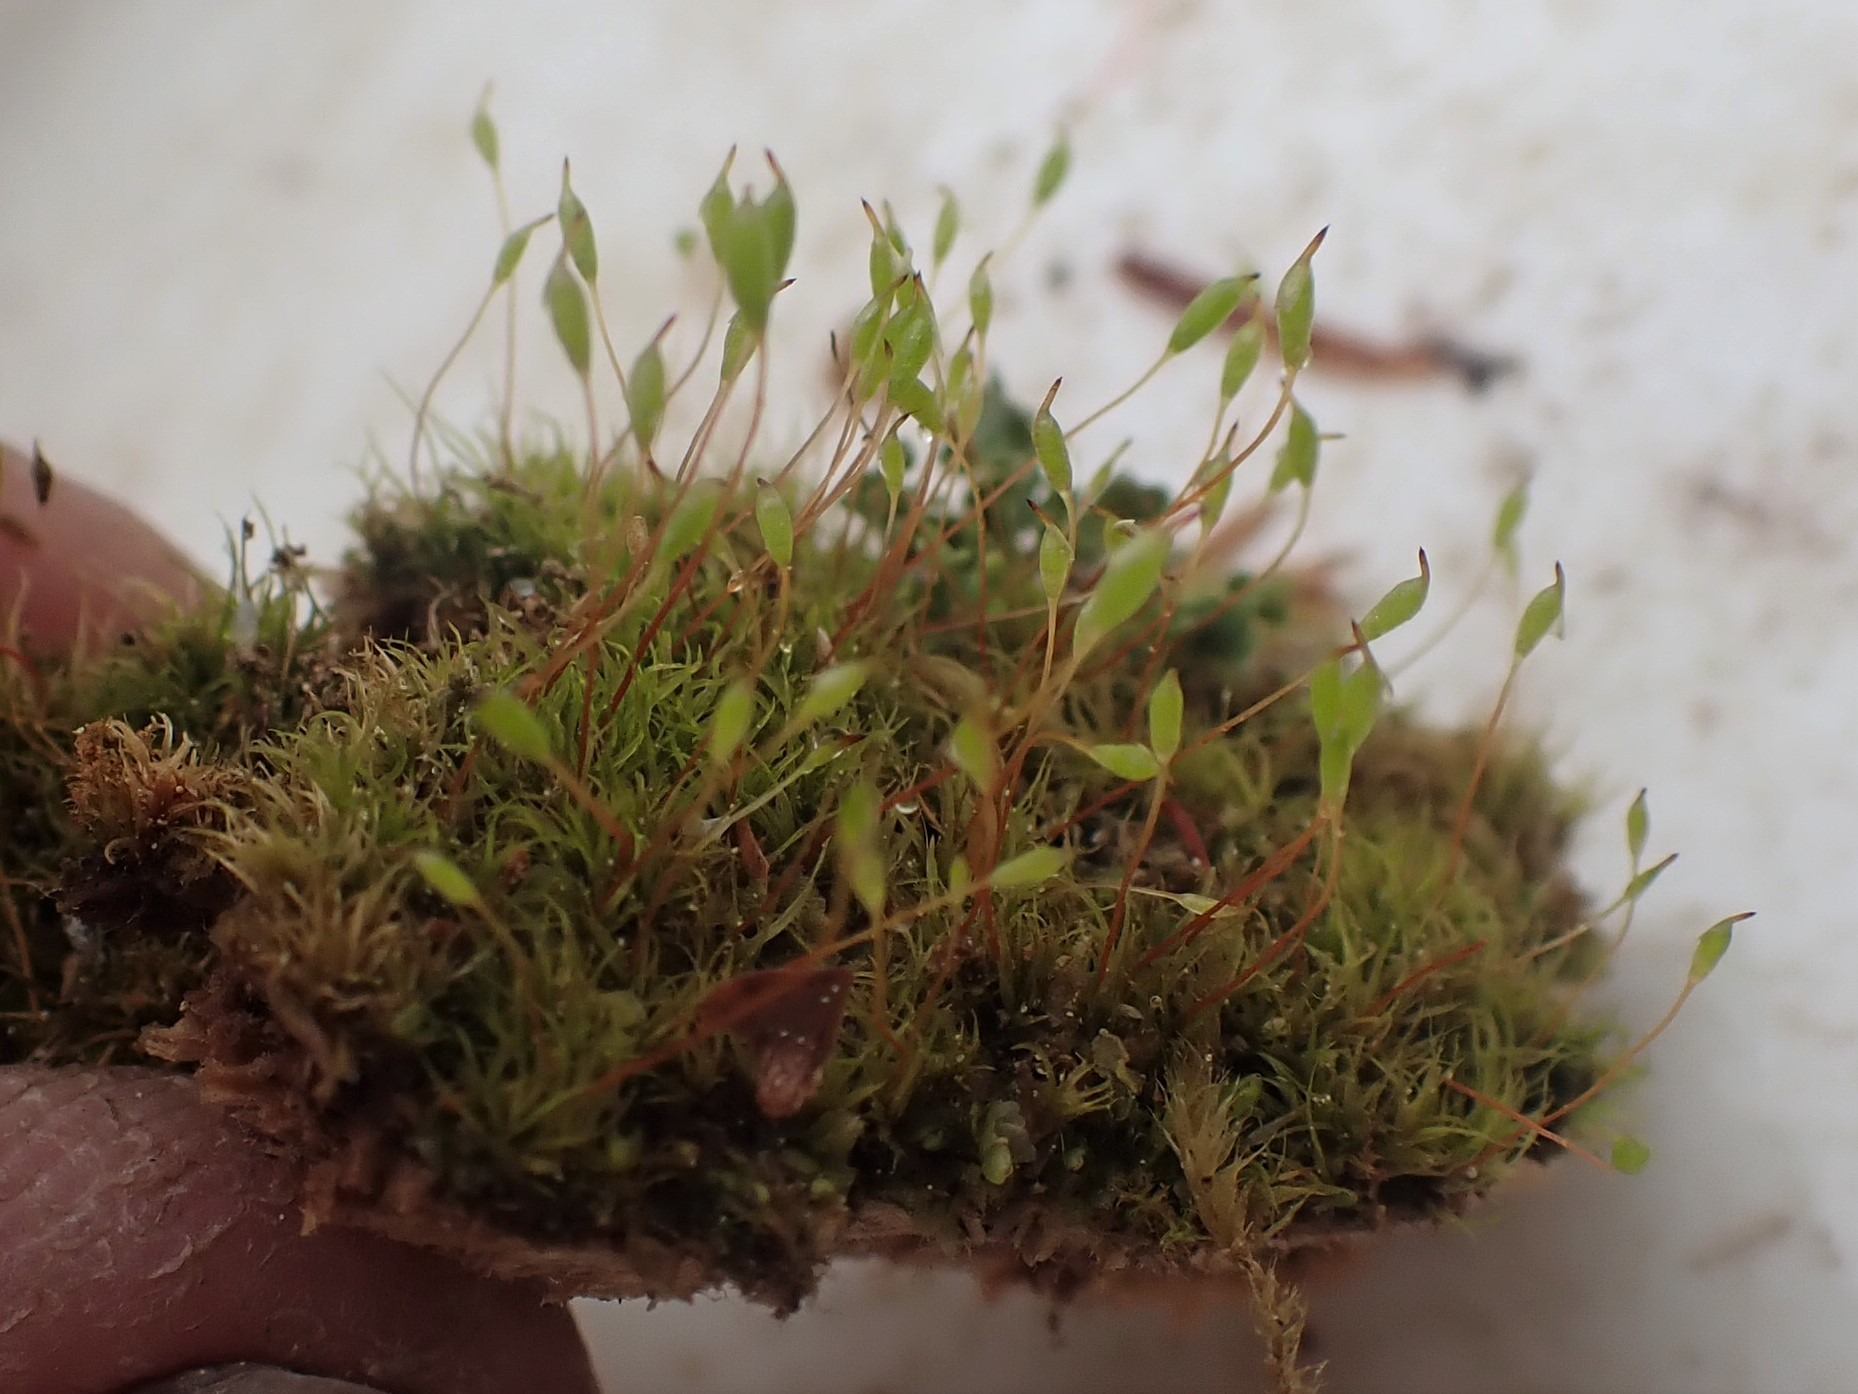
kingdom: Plantae
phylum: Bryophyta
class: Bryopsida
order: Orthodontiales
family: Orthodontiaceae
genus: Orthodontium
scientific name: Orthodontium lineare
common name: Smalbladet plysmos
